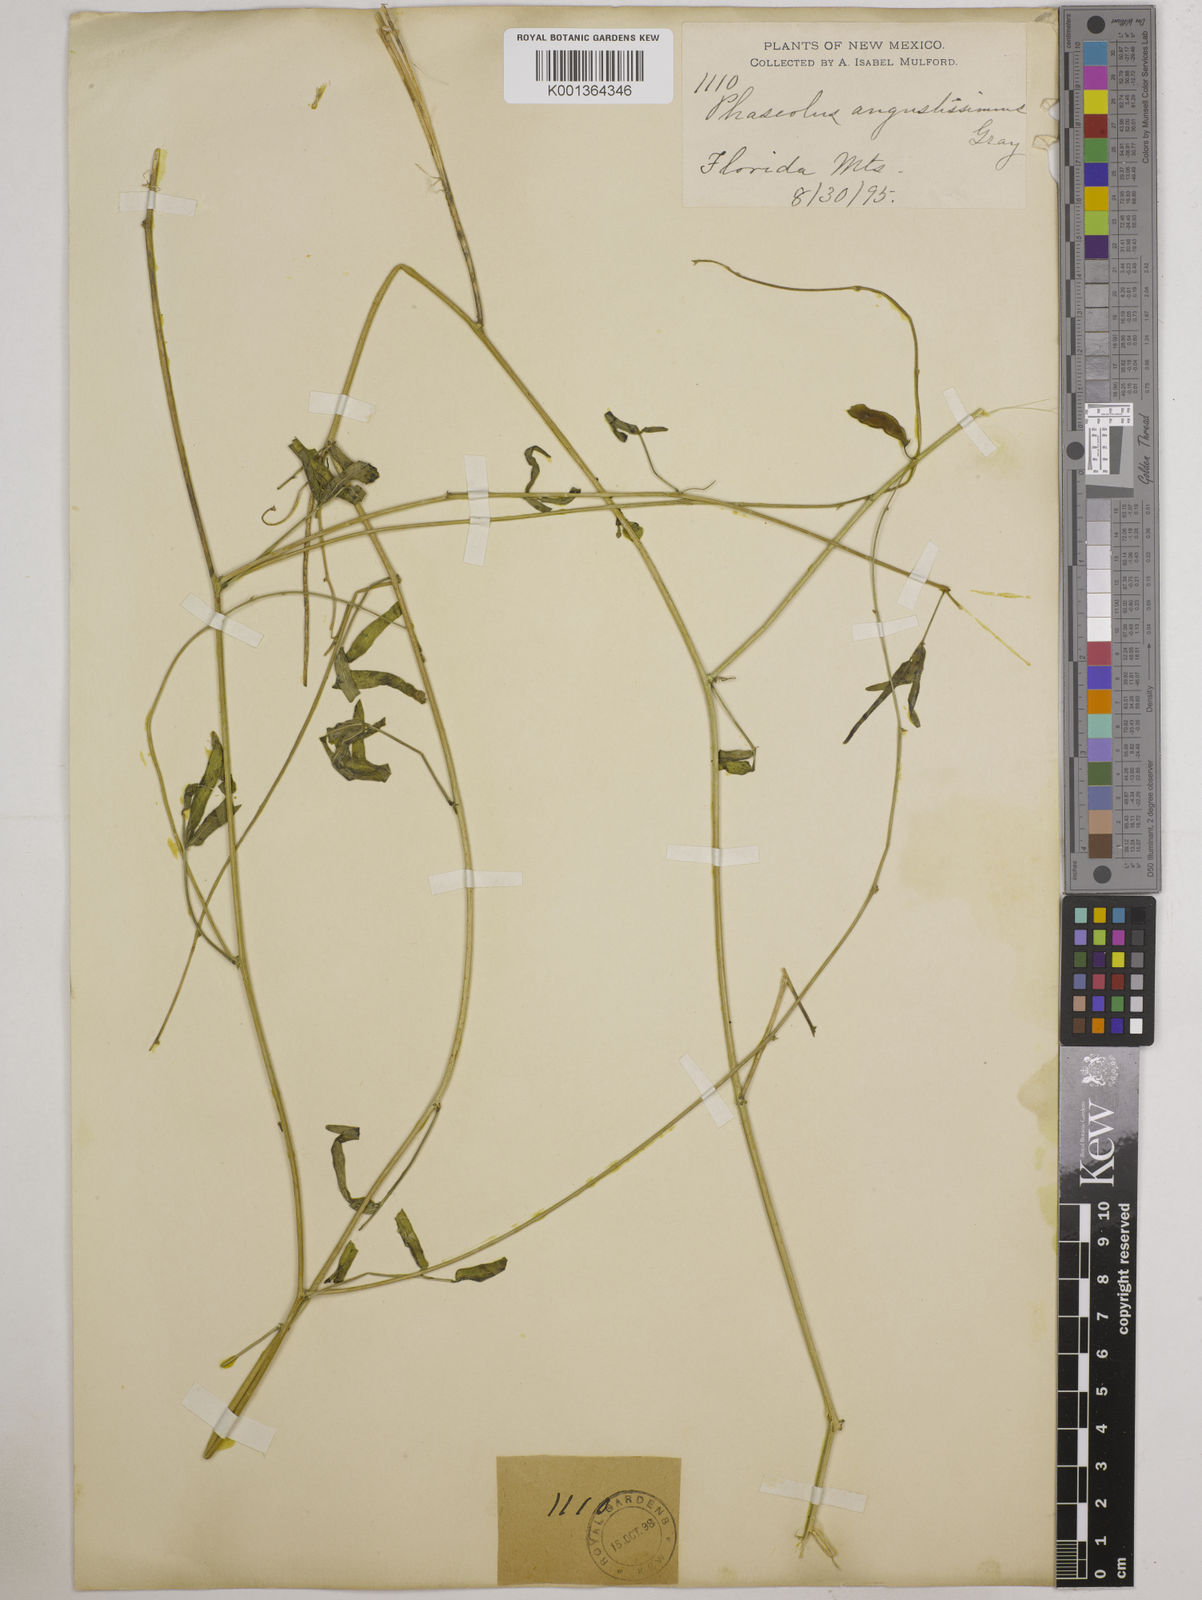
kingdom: Plantae
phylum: Tracheophyta
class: Magnoliopsida
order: Fabales
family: Fabaceae
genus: Phaseolus
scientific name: Phaseolus angustissimus
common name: Slimleaf bean
